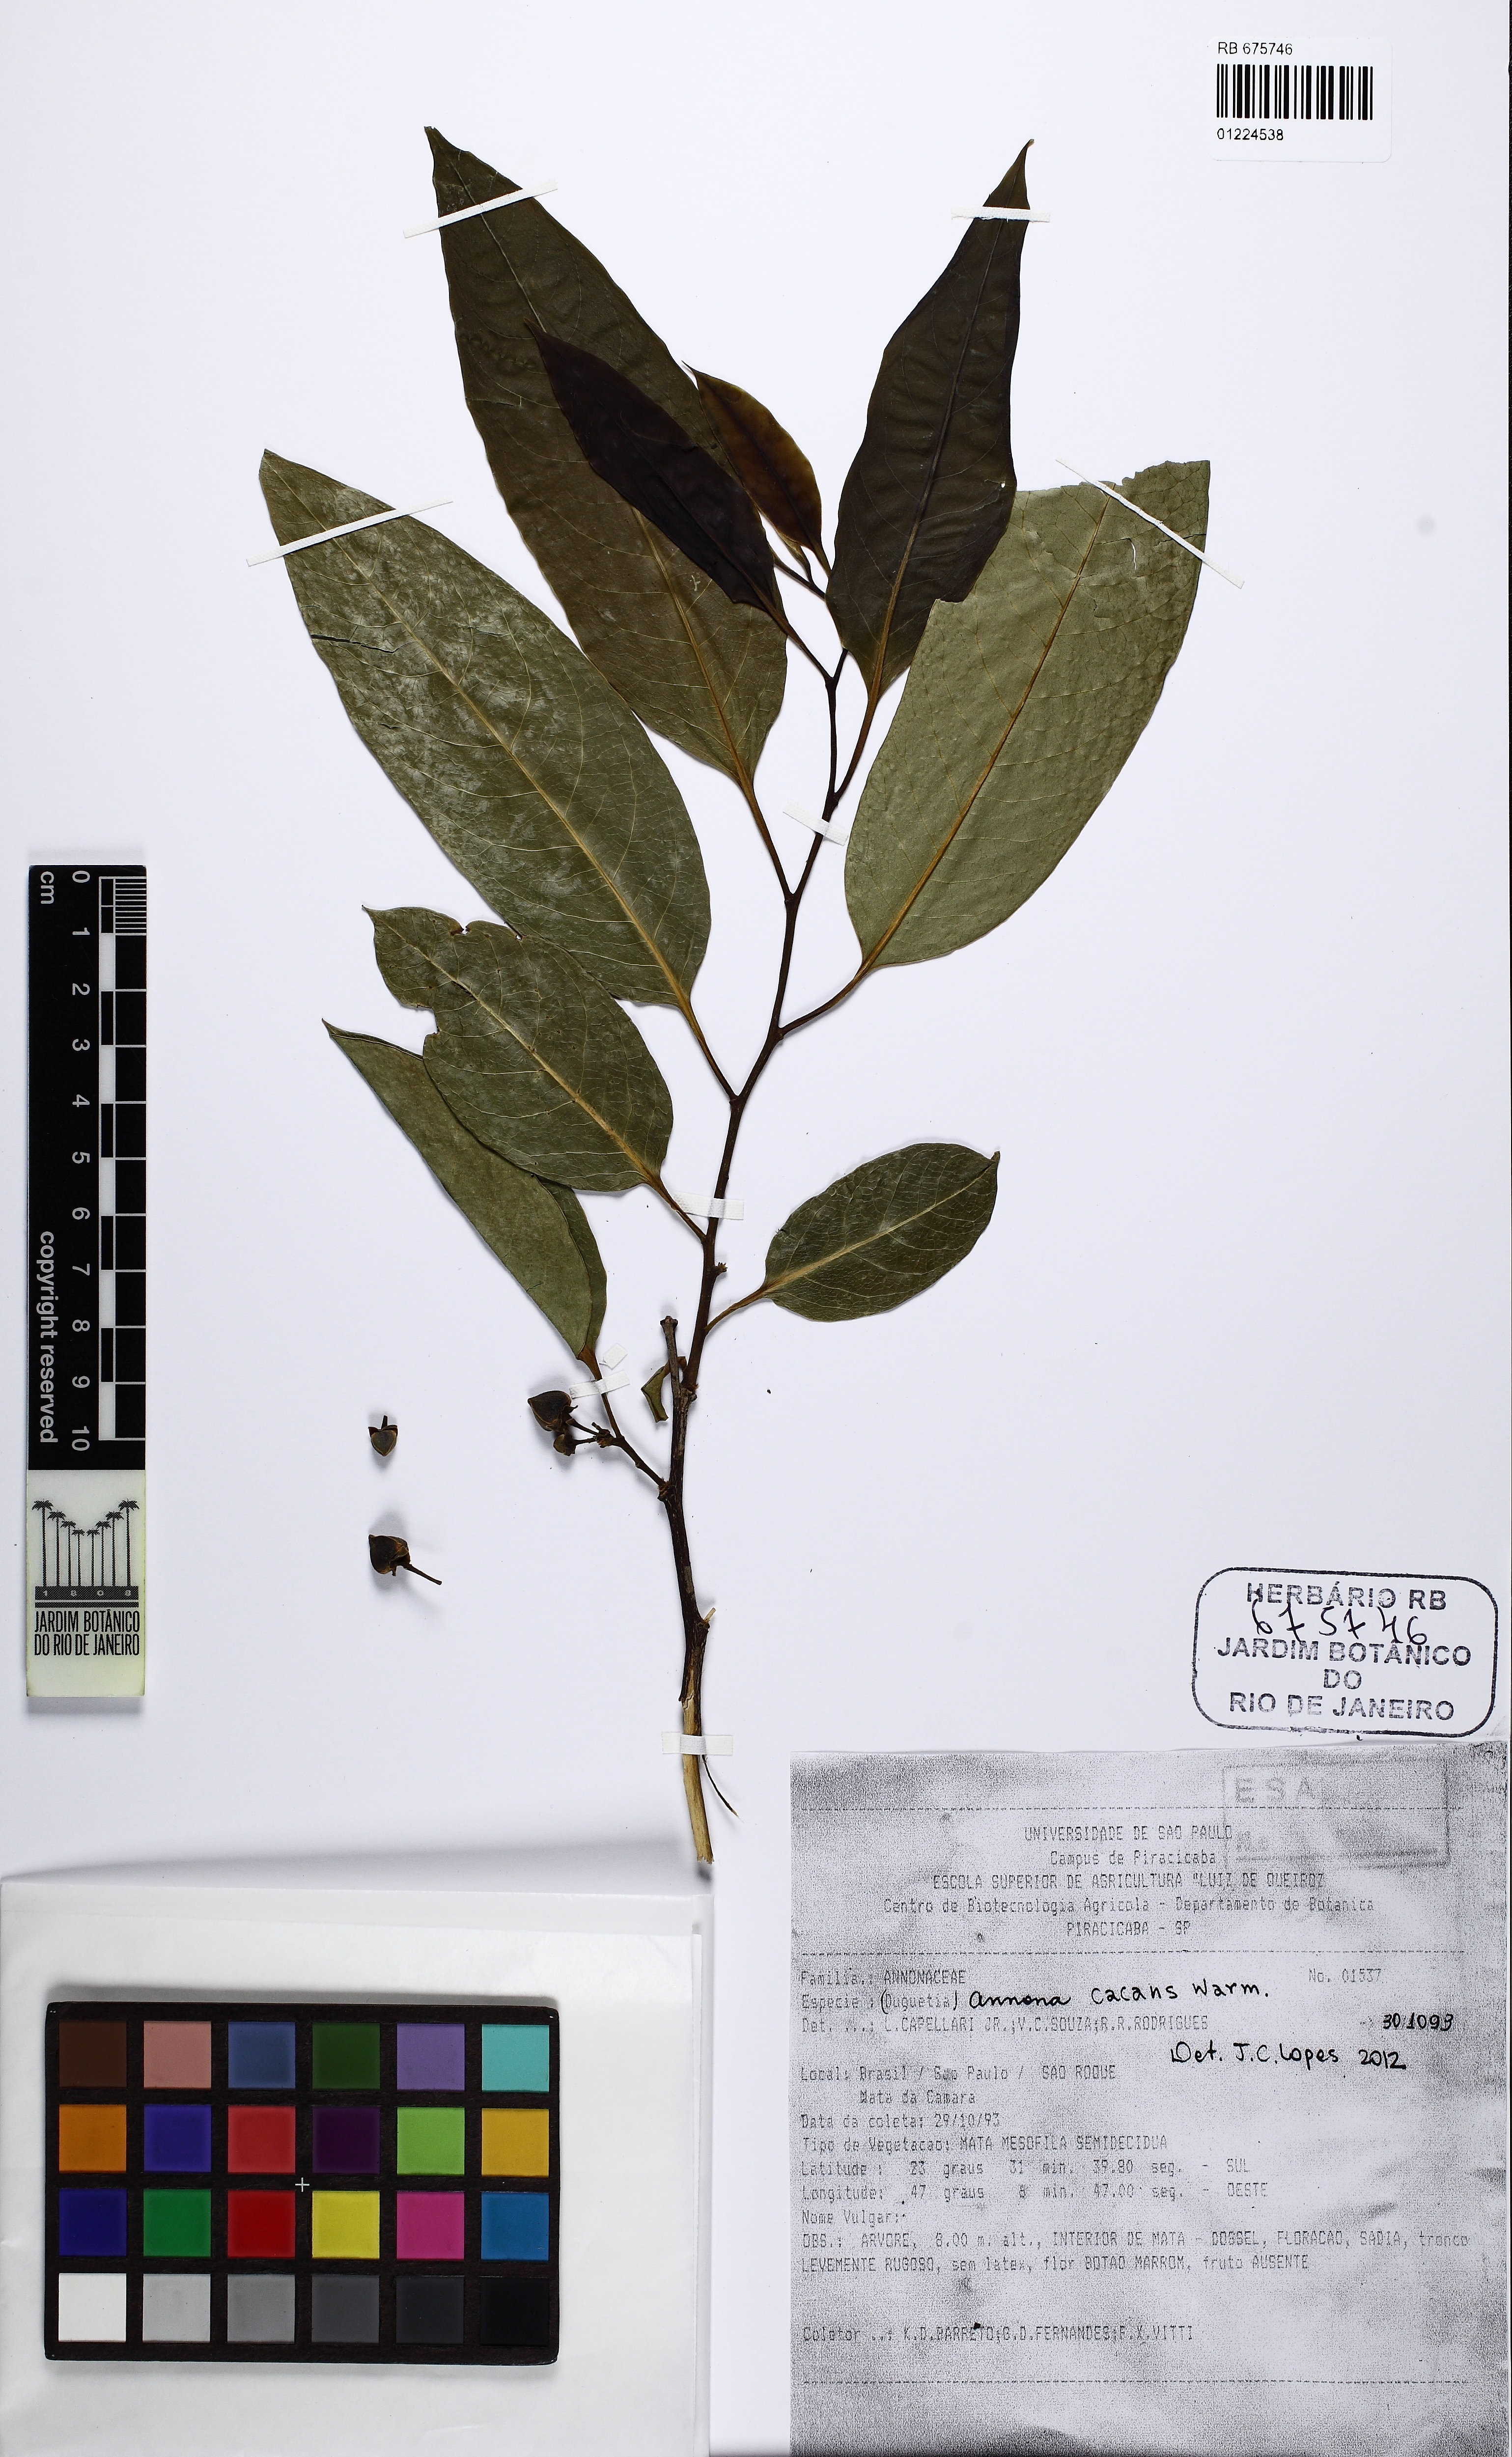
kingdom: Plantae
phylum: Tracheophyta
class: Magnoliopsida
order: Magnoliales
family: Annonaceae
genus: Annona
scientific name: Annona cacans
